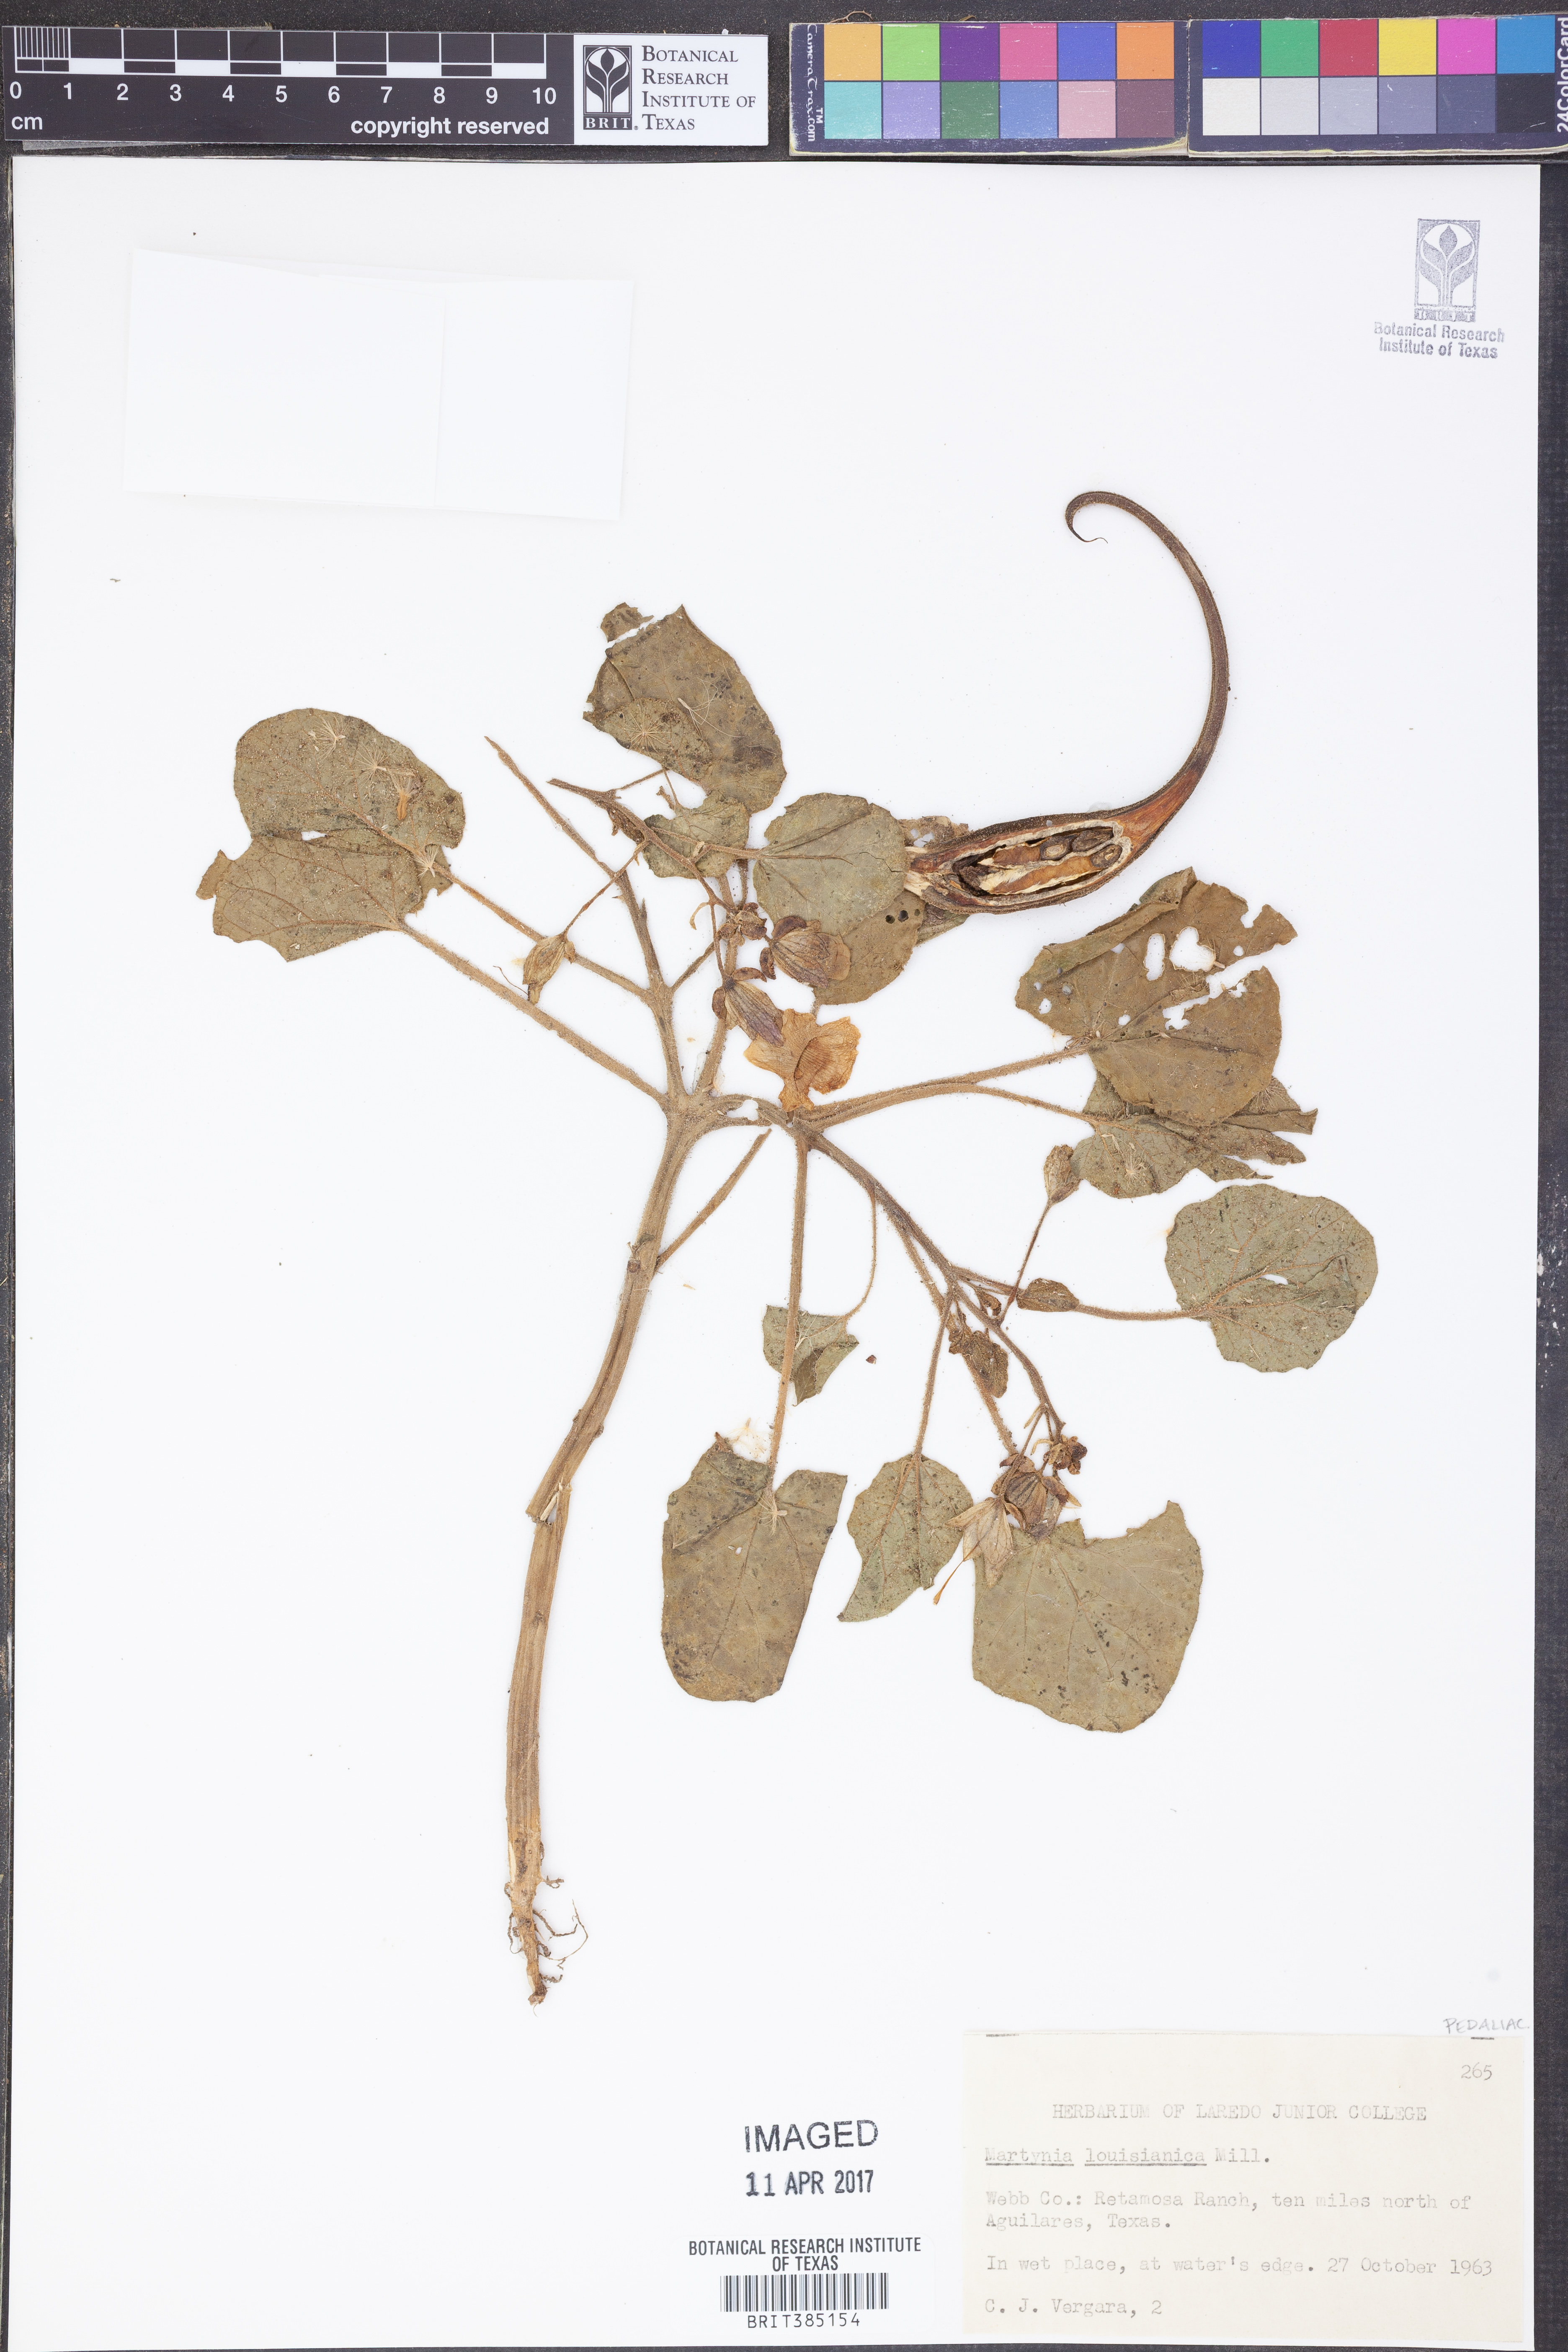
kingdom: Plantae
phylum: Tracheophyta
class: Magnoliopsida
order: Lamiales
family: Martyniaceae
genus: Proboscidea
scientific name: Proboscidea louisianica
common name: Elephant tusks
